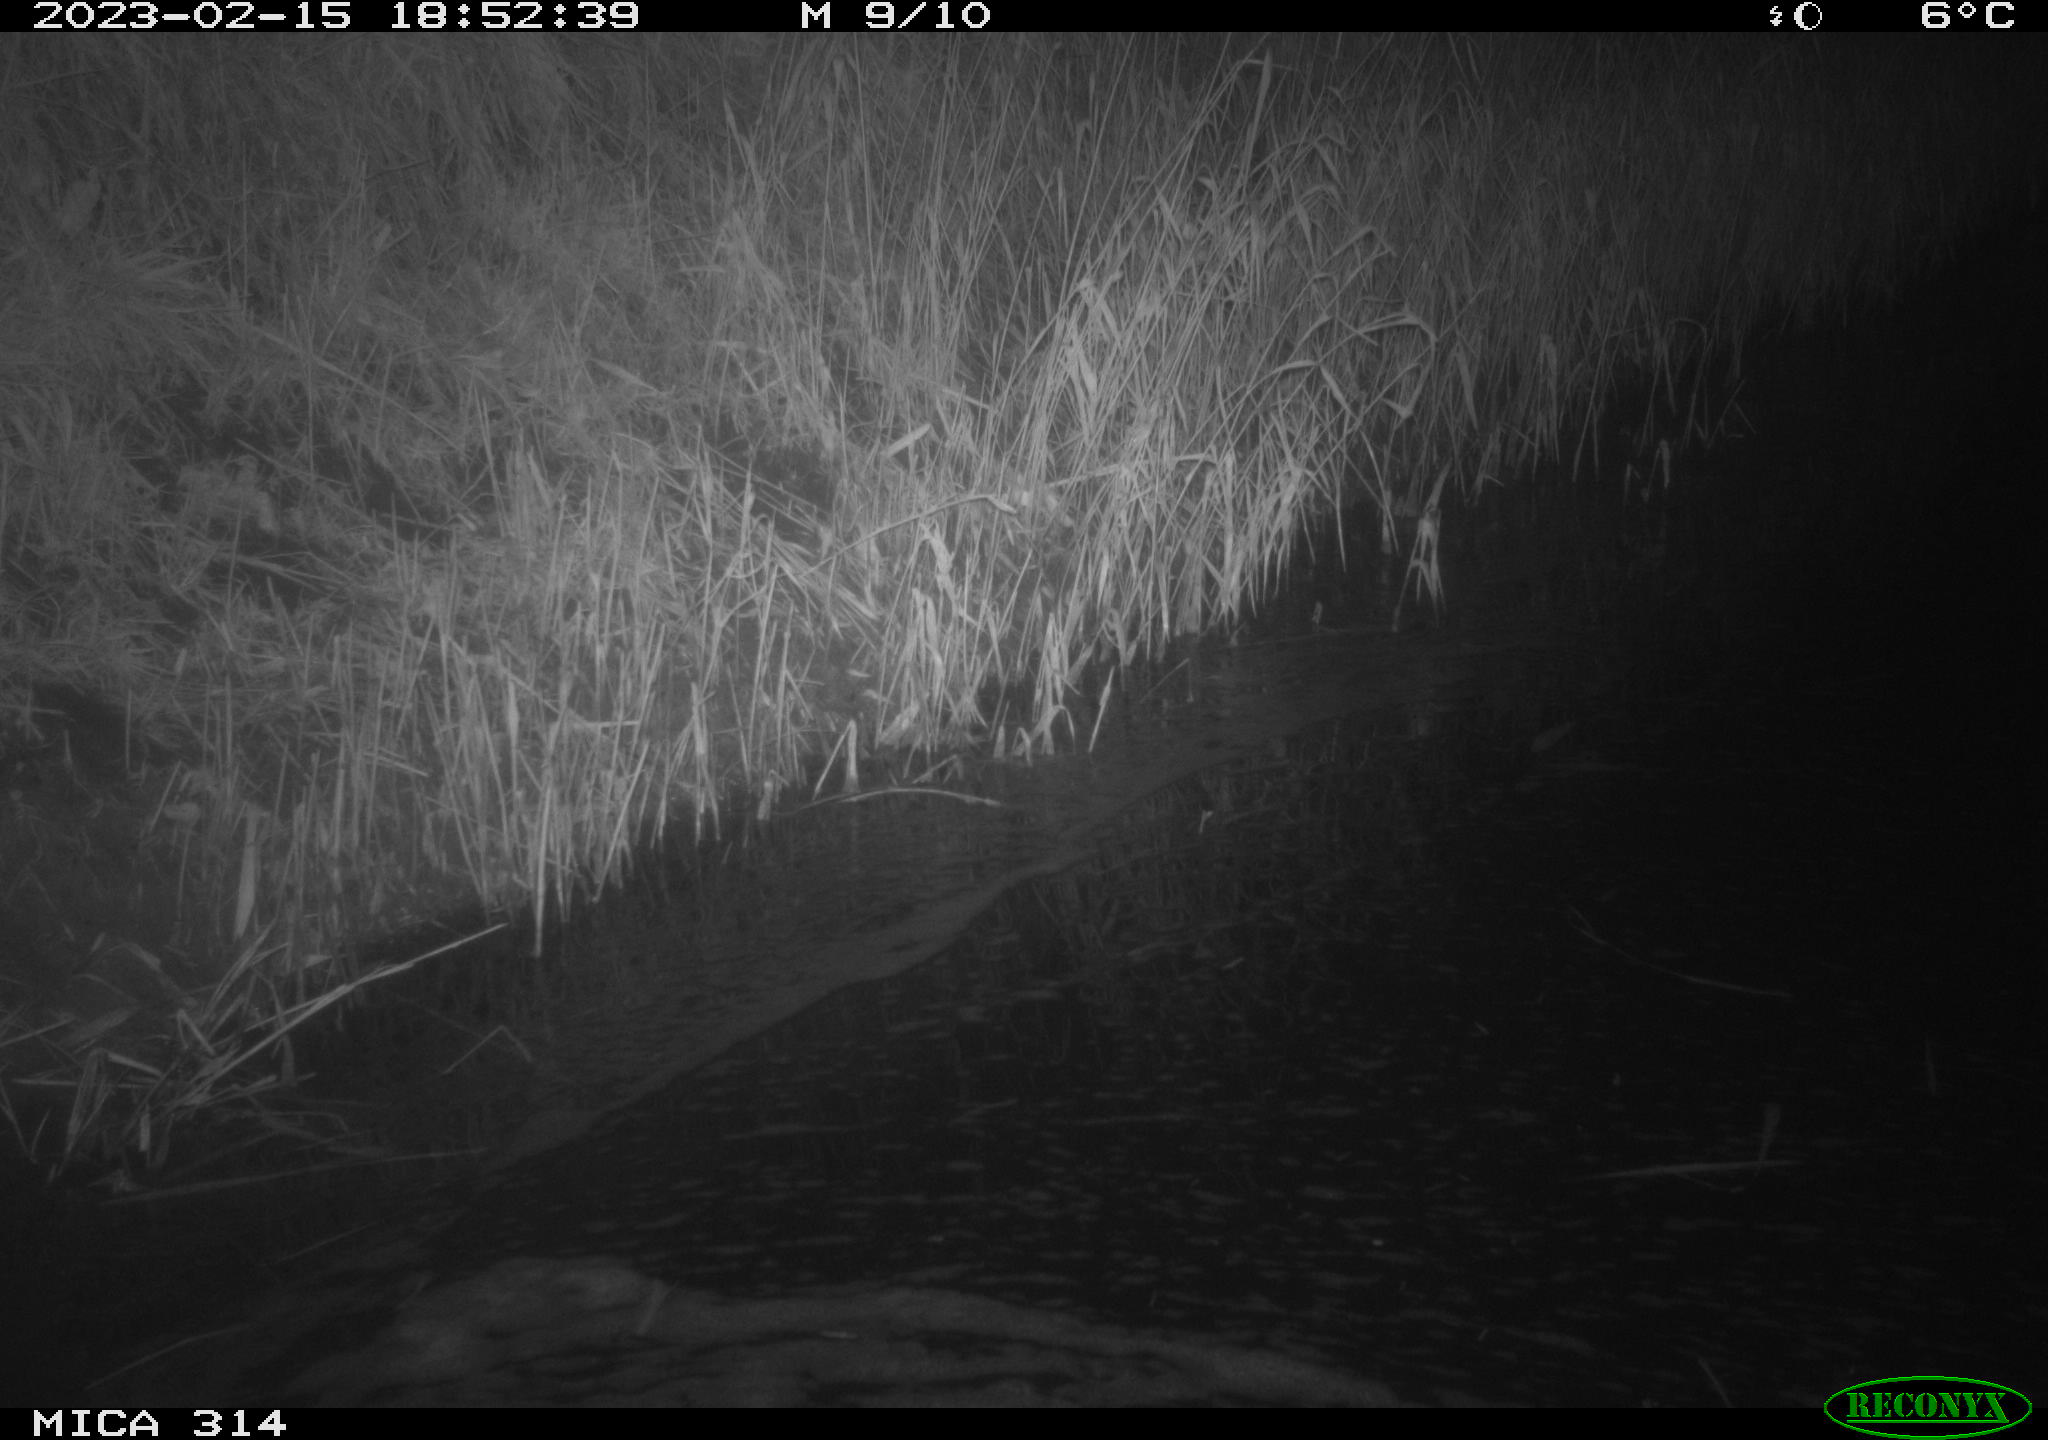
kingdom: Animalia
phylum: Chordata
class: Mammalia
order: Rodentia
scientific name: Rodentia
